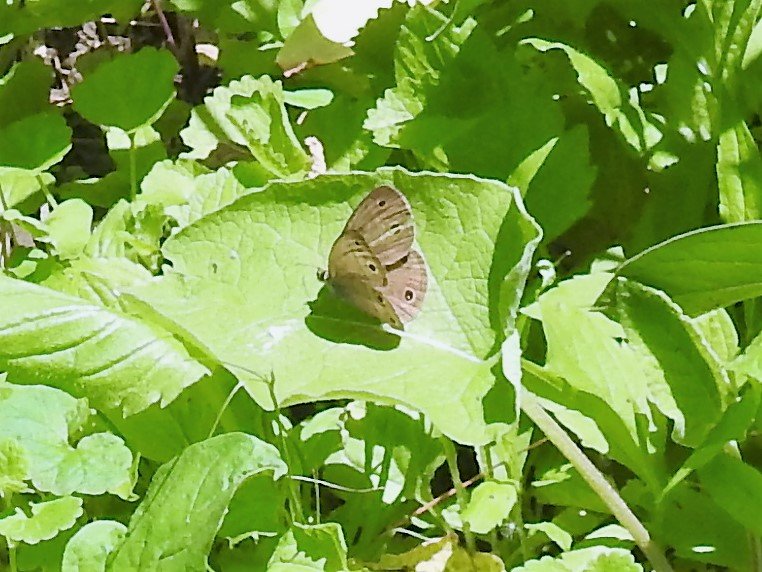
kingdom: Animalia
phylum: Arthropoda
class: Insecta
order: Lepidoptera
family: Nymphalidae
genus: Euptychia
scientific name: Euptychia cymela
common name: Little Wood Satyr
